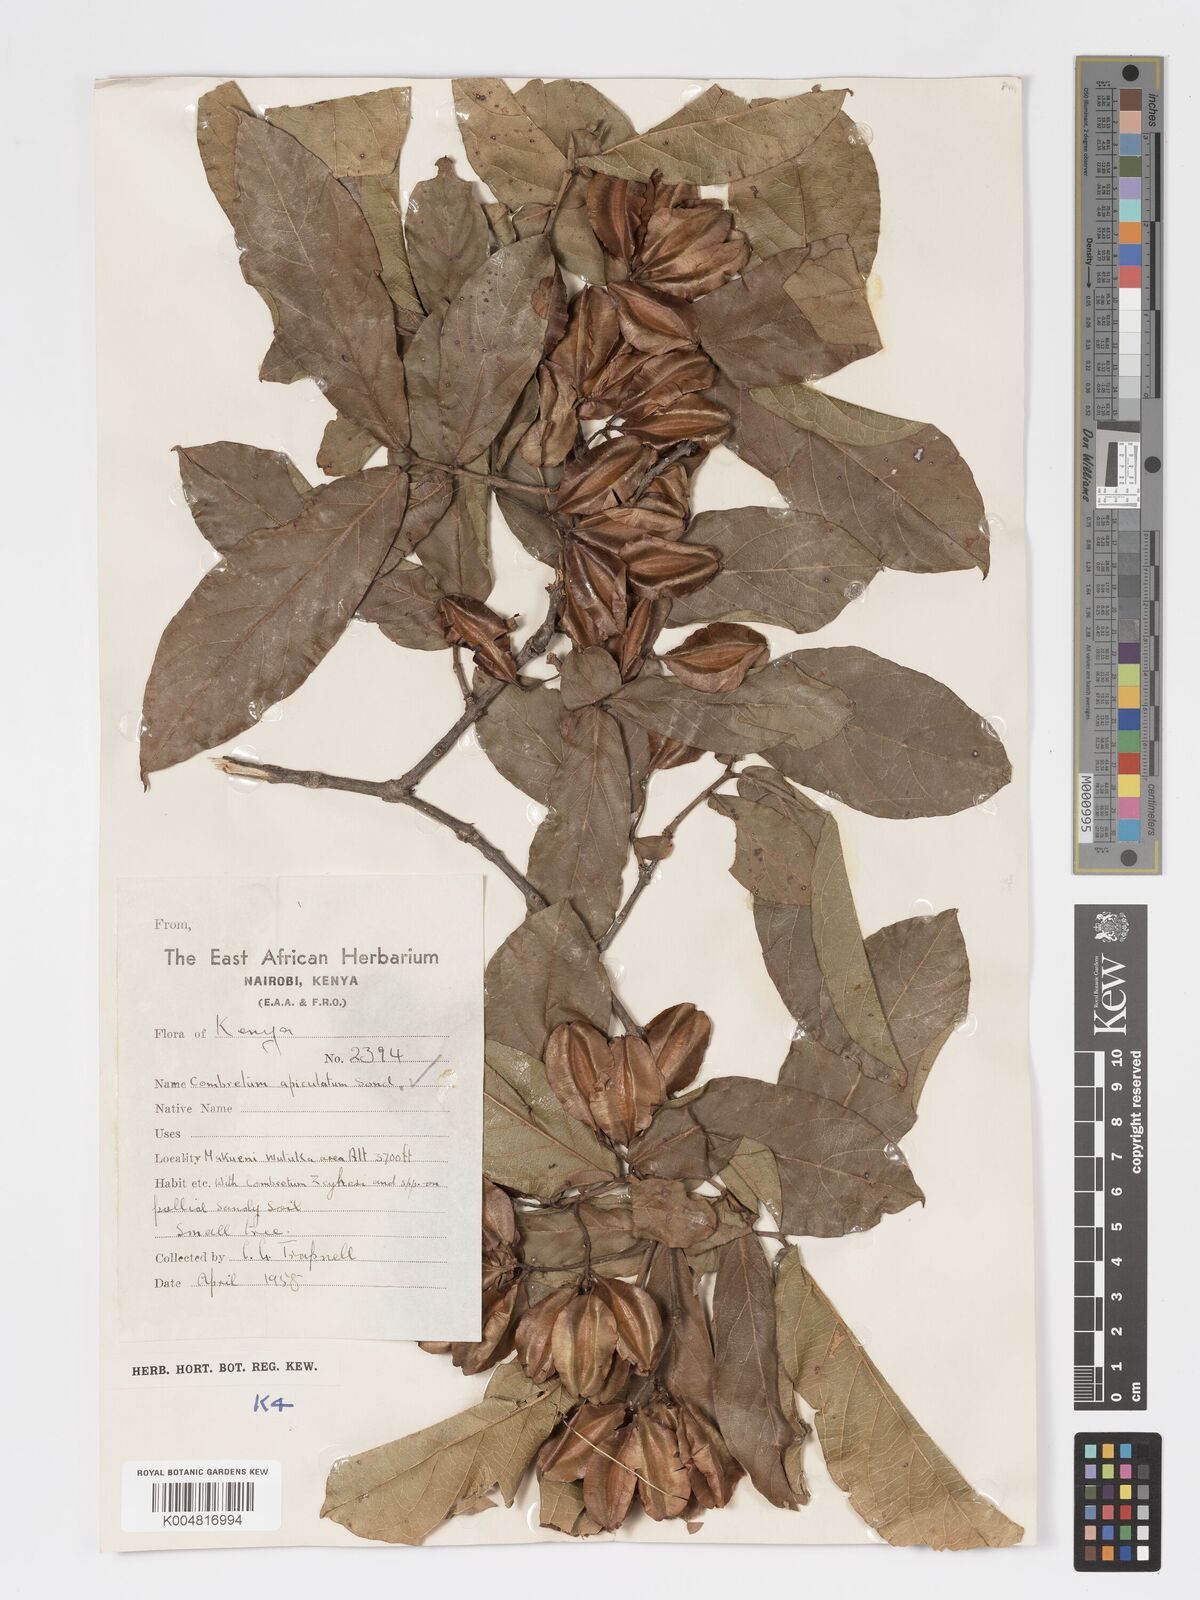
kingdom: Plantae
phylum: Tracheophyta
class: Magnoliopsida
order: Myrtales
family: Combretaceae
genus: Combretum
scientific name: Combretum apiculatum
